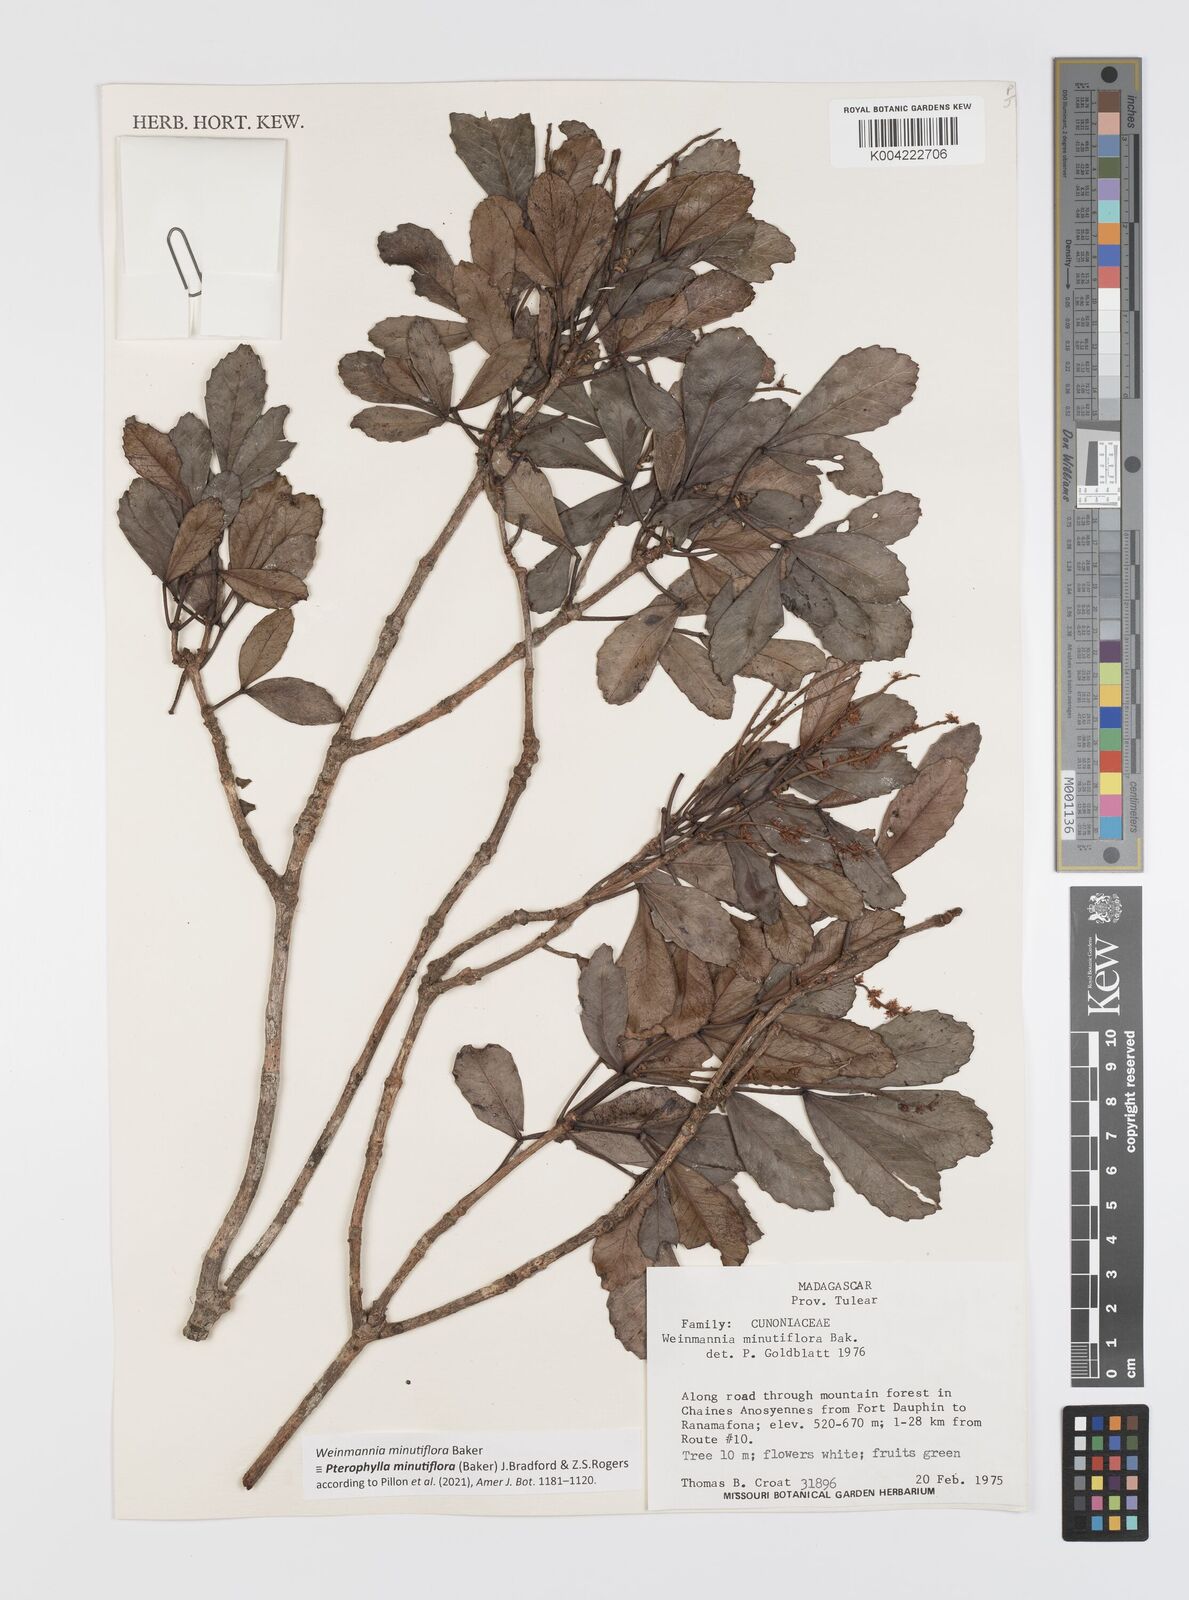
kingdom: Plantae
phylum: Tracheophyta
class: Magnoliopsida
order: Oxalidales
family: Cunoniaceae
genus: Pterophylla
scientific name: Pterophylla
